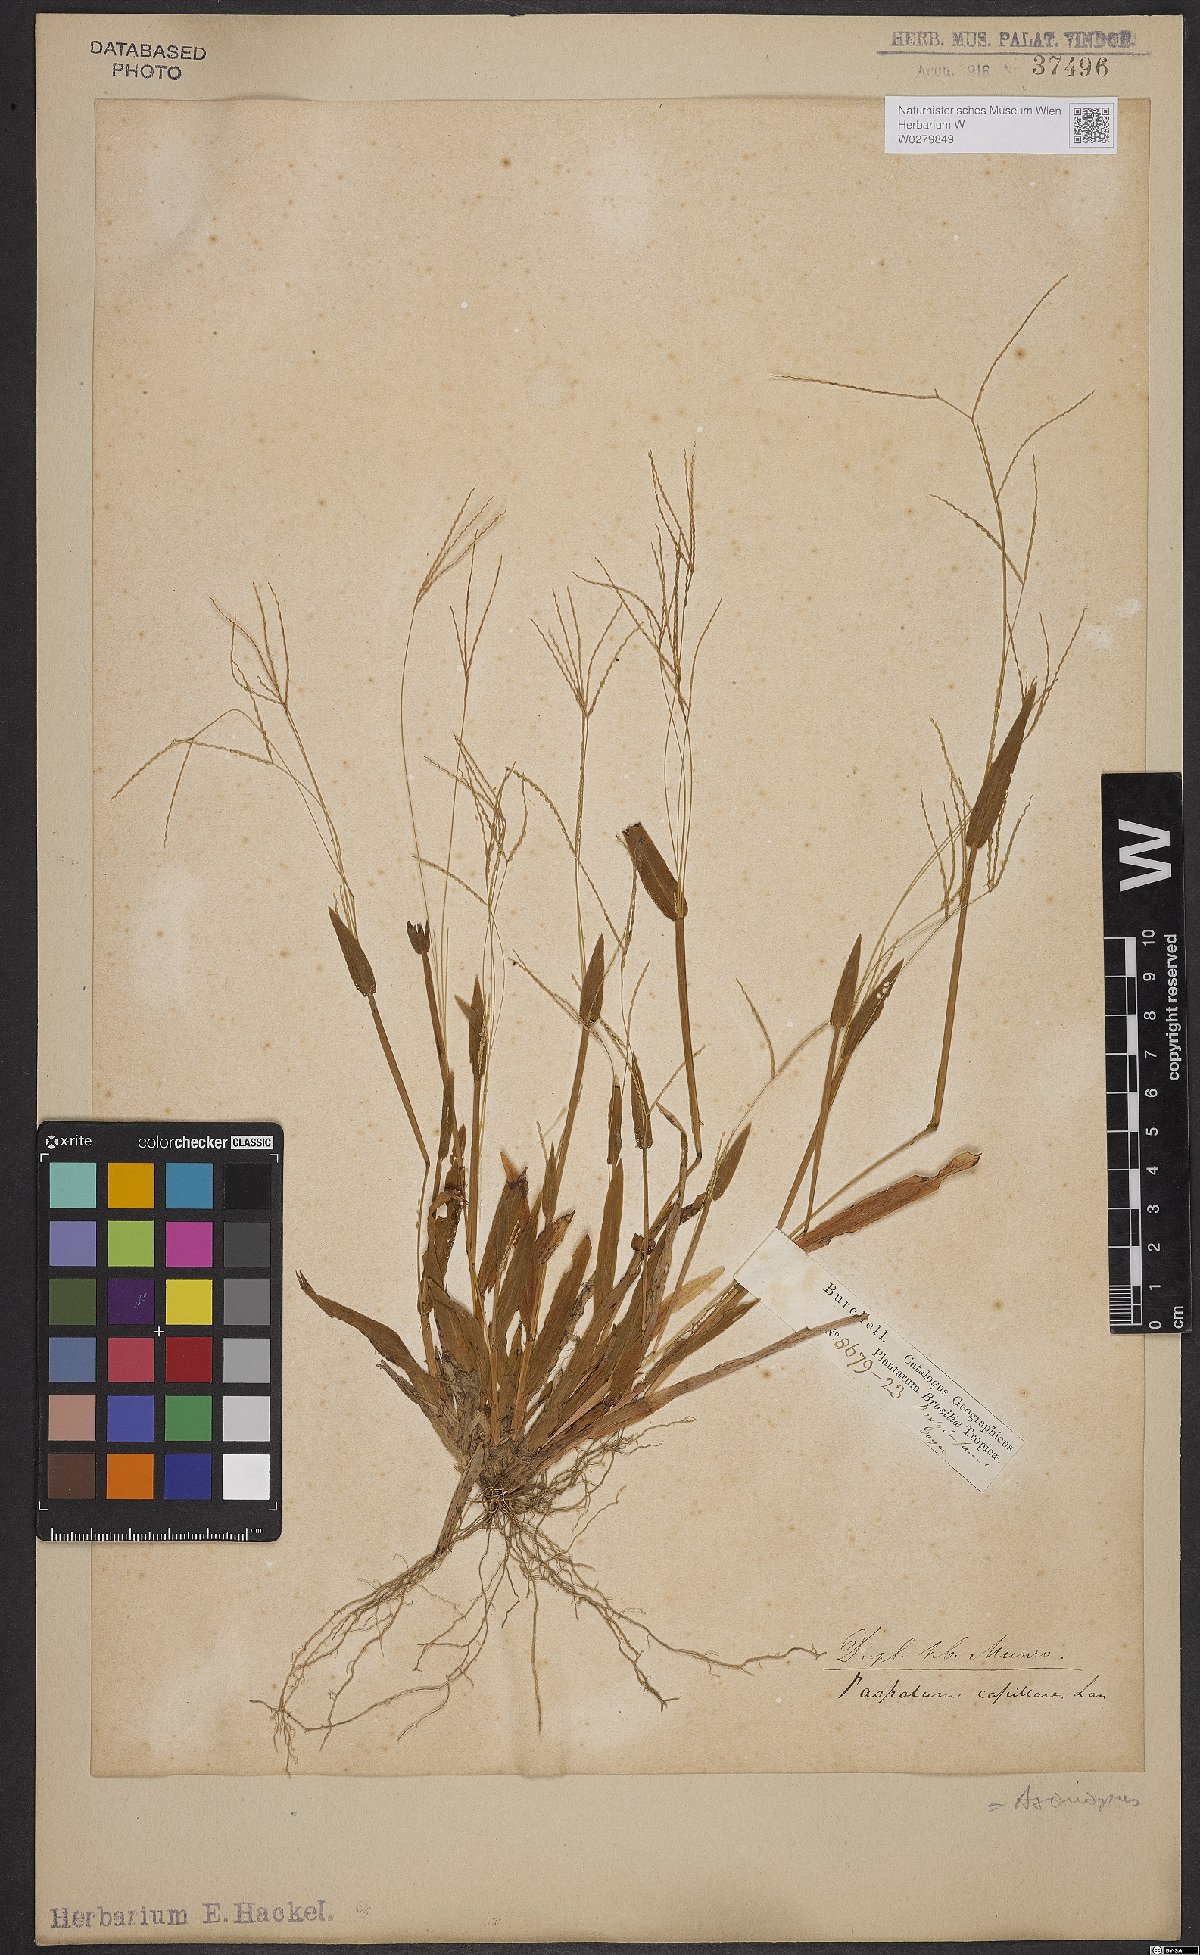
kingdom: Plantae
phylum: Tracheophyta
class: Liliopsida
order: Poales
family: Poaceae
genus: Axonopus
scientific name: Axonopus capillaris
